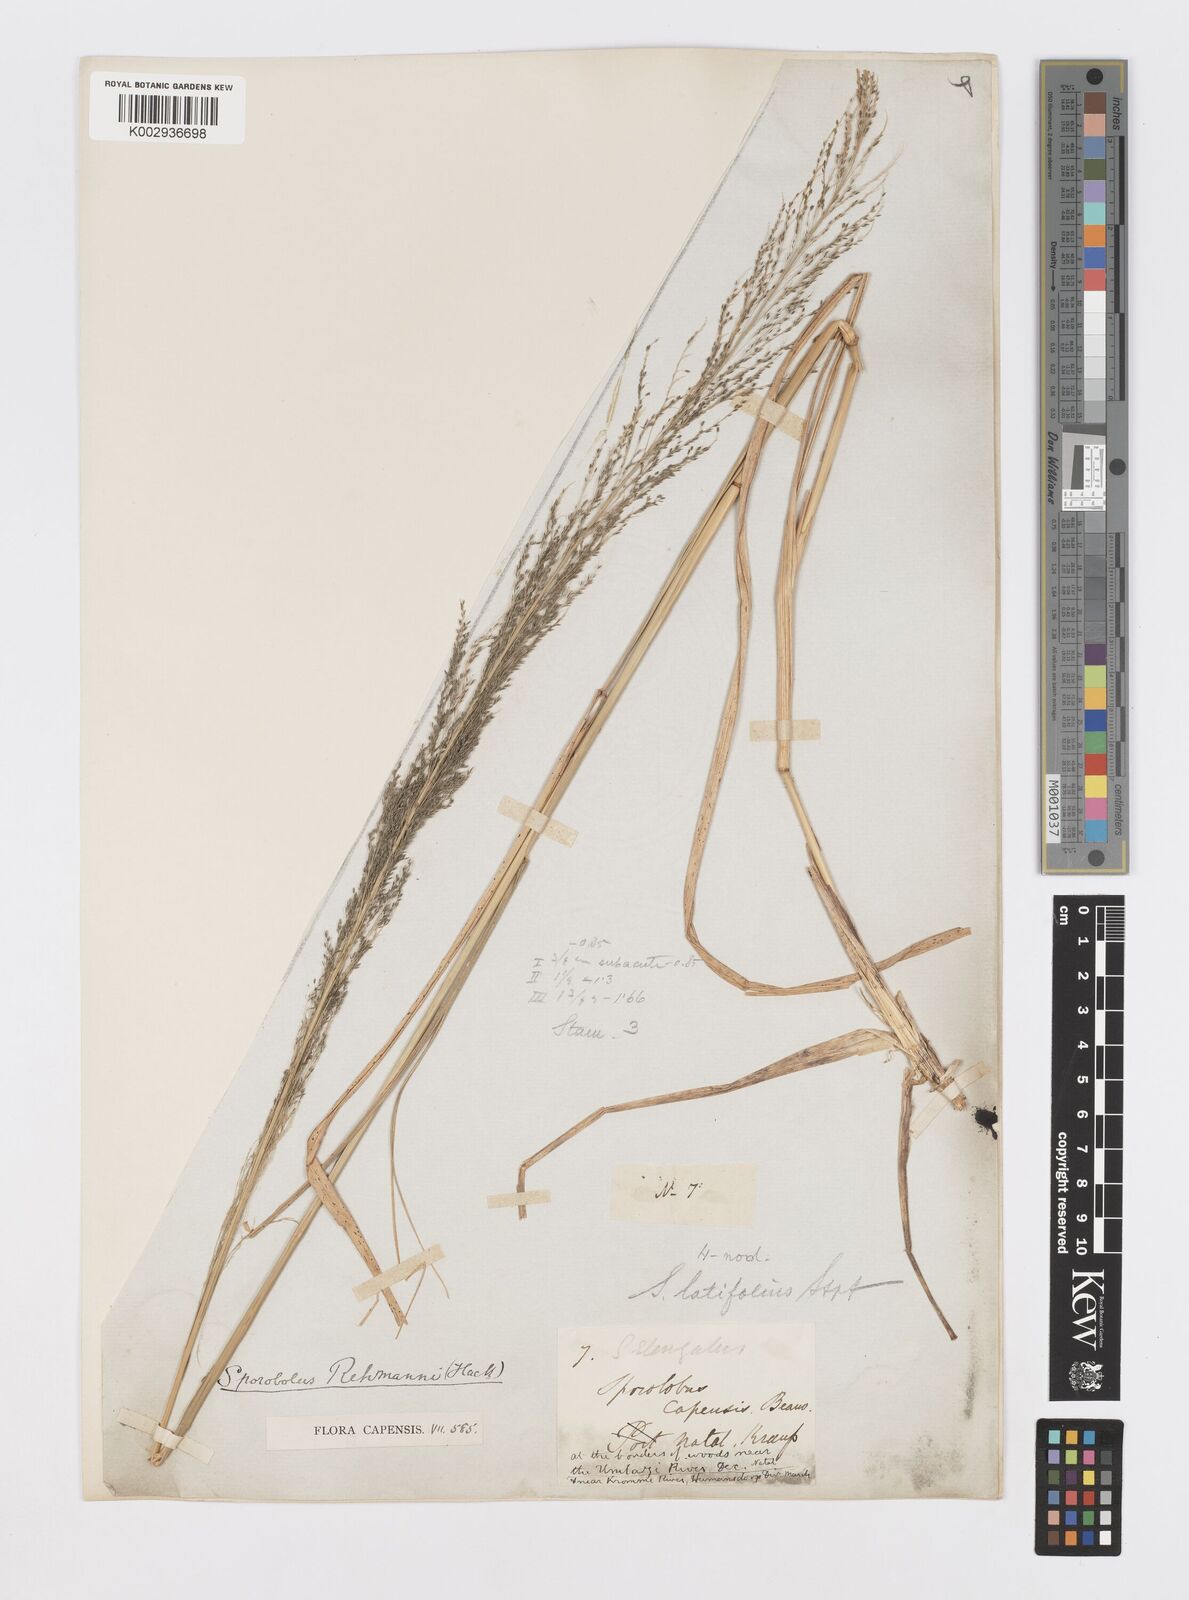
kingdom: Plantae
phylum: Tracheophyta
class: Liliopsida
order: Poales
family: Poaceae
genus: Sporobolus
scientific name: Sporobolus fimbriatus
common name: Fringed dropseed
